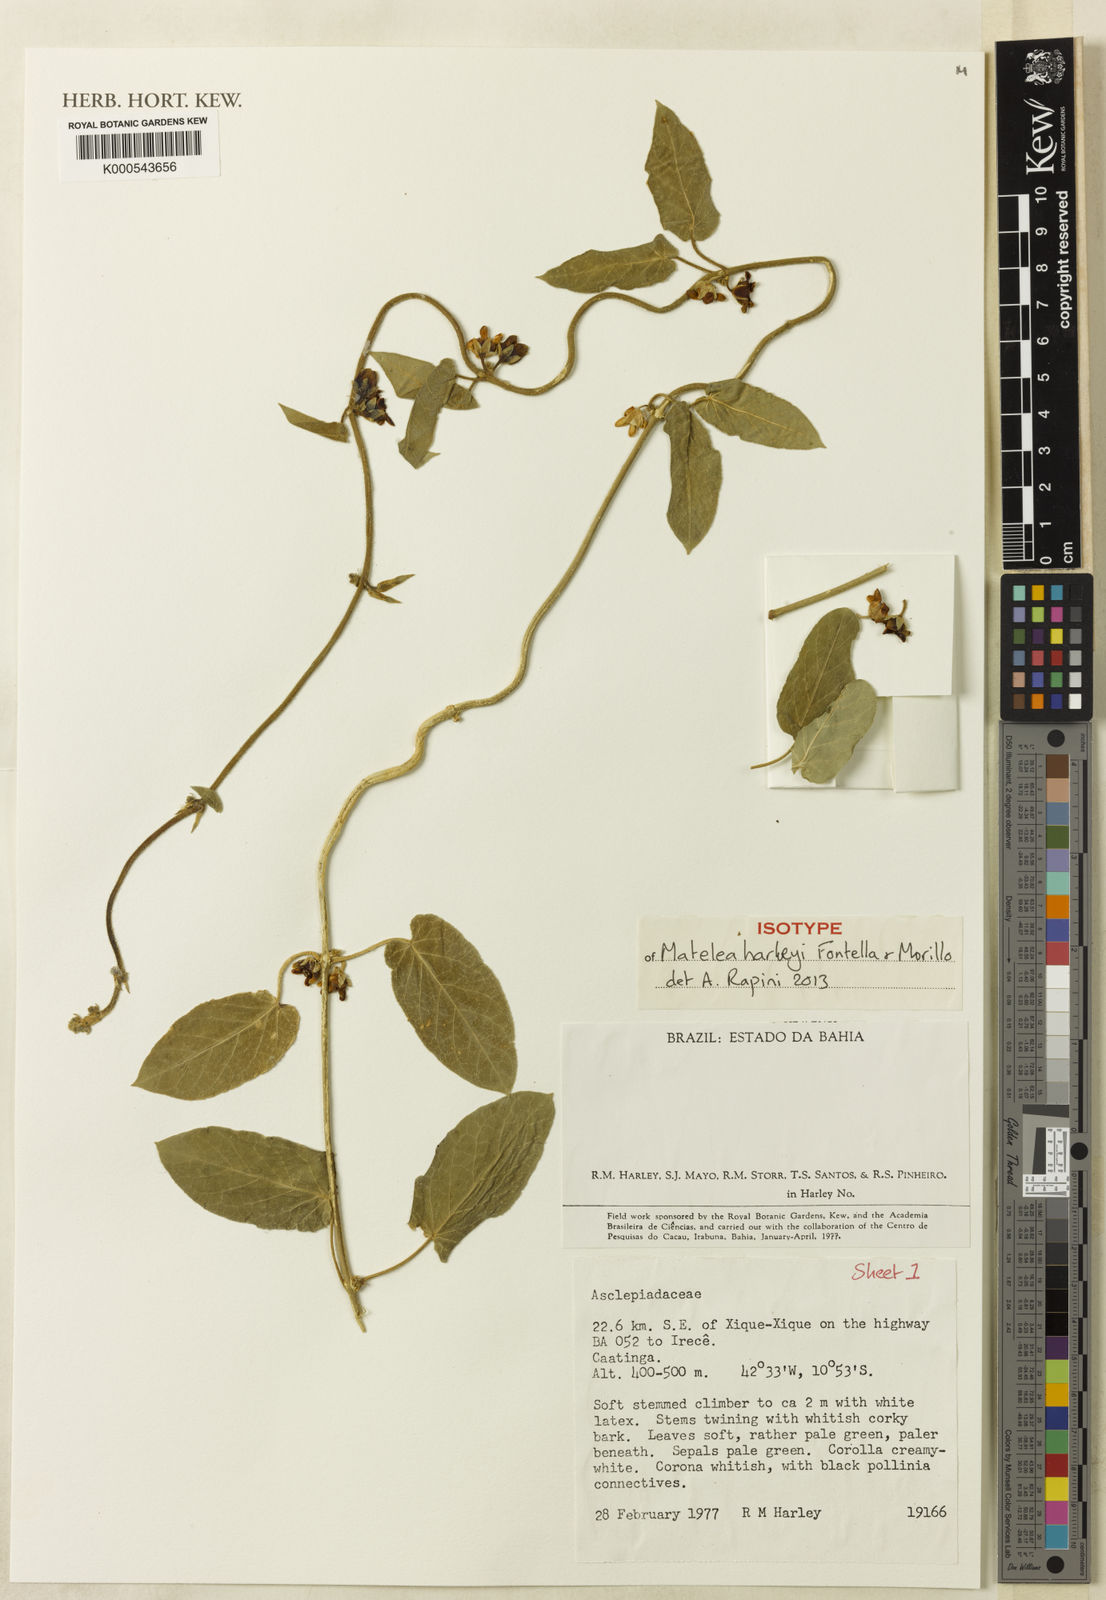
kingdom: Plantae
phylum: Tracheophyta
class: Magnoliopsida
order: Gentianales
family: Apocynaceae
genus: Ibatia
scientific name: Ibatia harleyi
